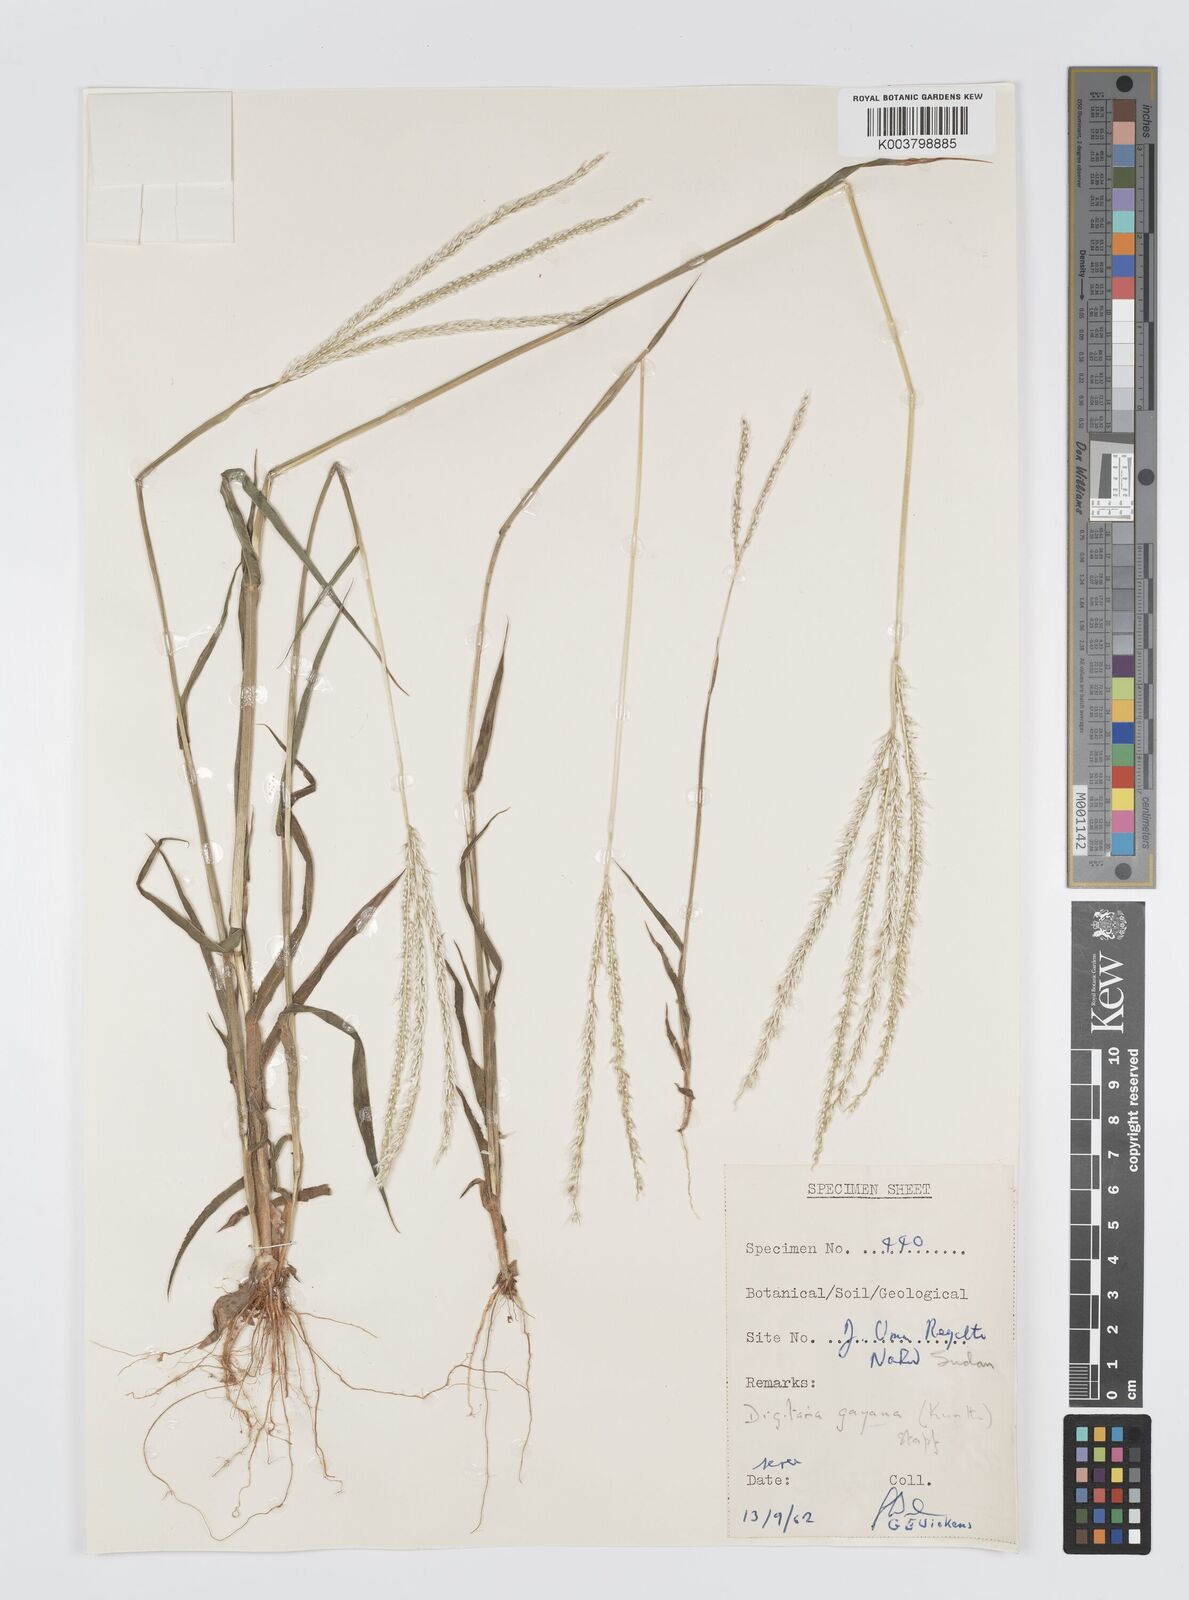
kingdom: Plantae
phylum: Tracheophyta
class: Liliopsida
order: Poales
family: Poaceae
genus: Digitaria
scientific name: Digitaria gayana
